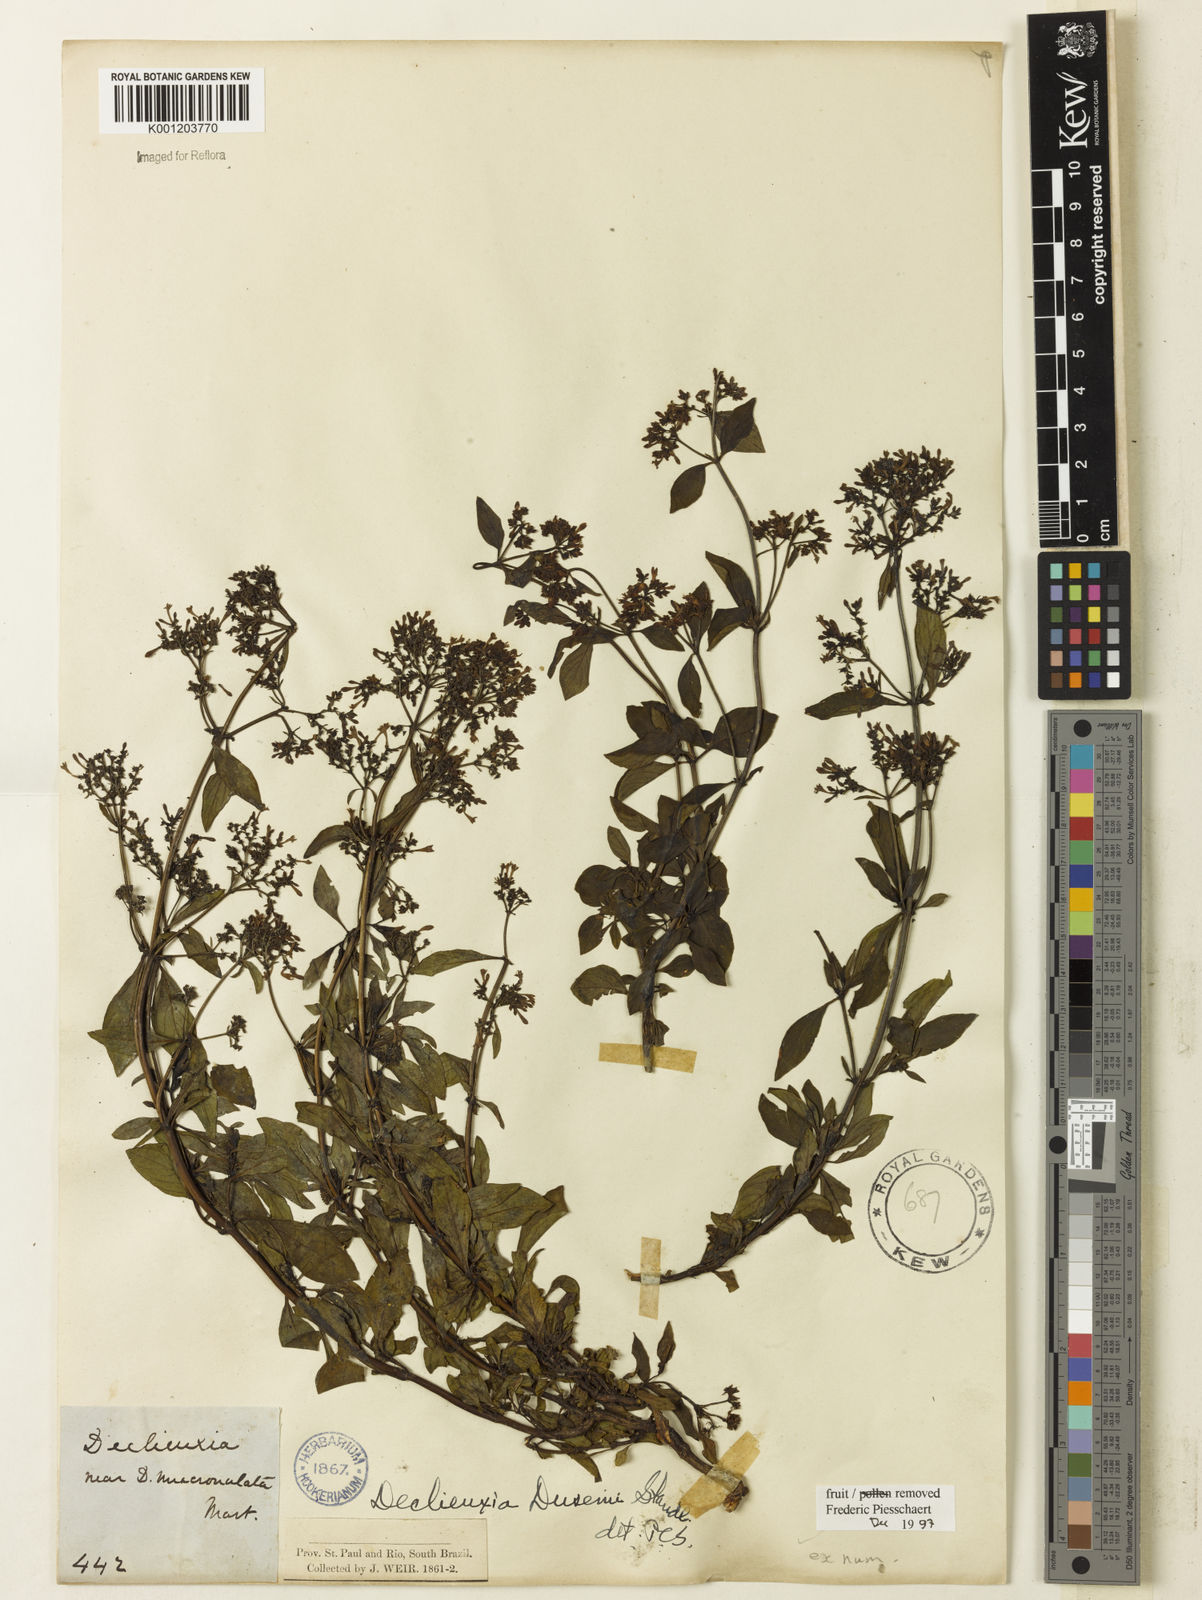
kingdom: Plantae
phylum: Tracheophyta
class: Magnoliopsida
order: Gentianales
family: Rubiaceae
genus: Declieuxia
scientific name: Declieuxia dusenii
